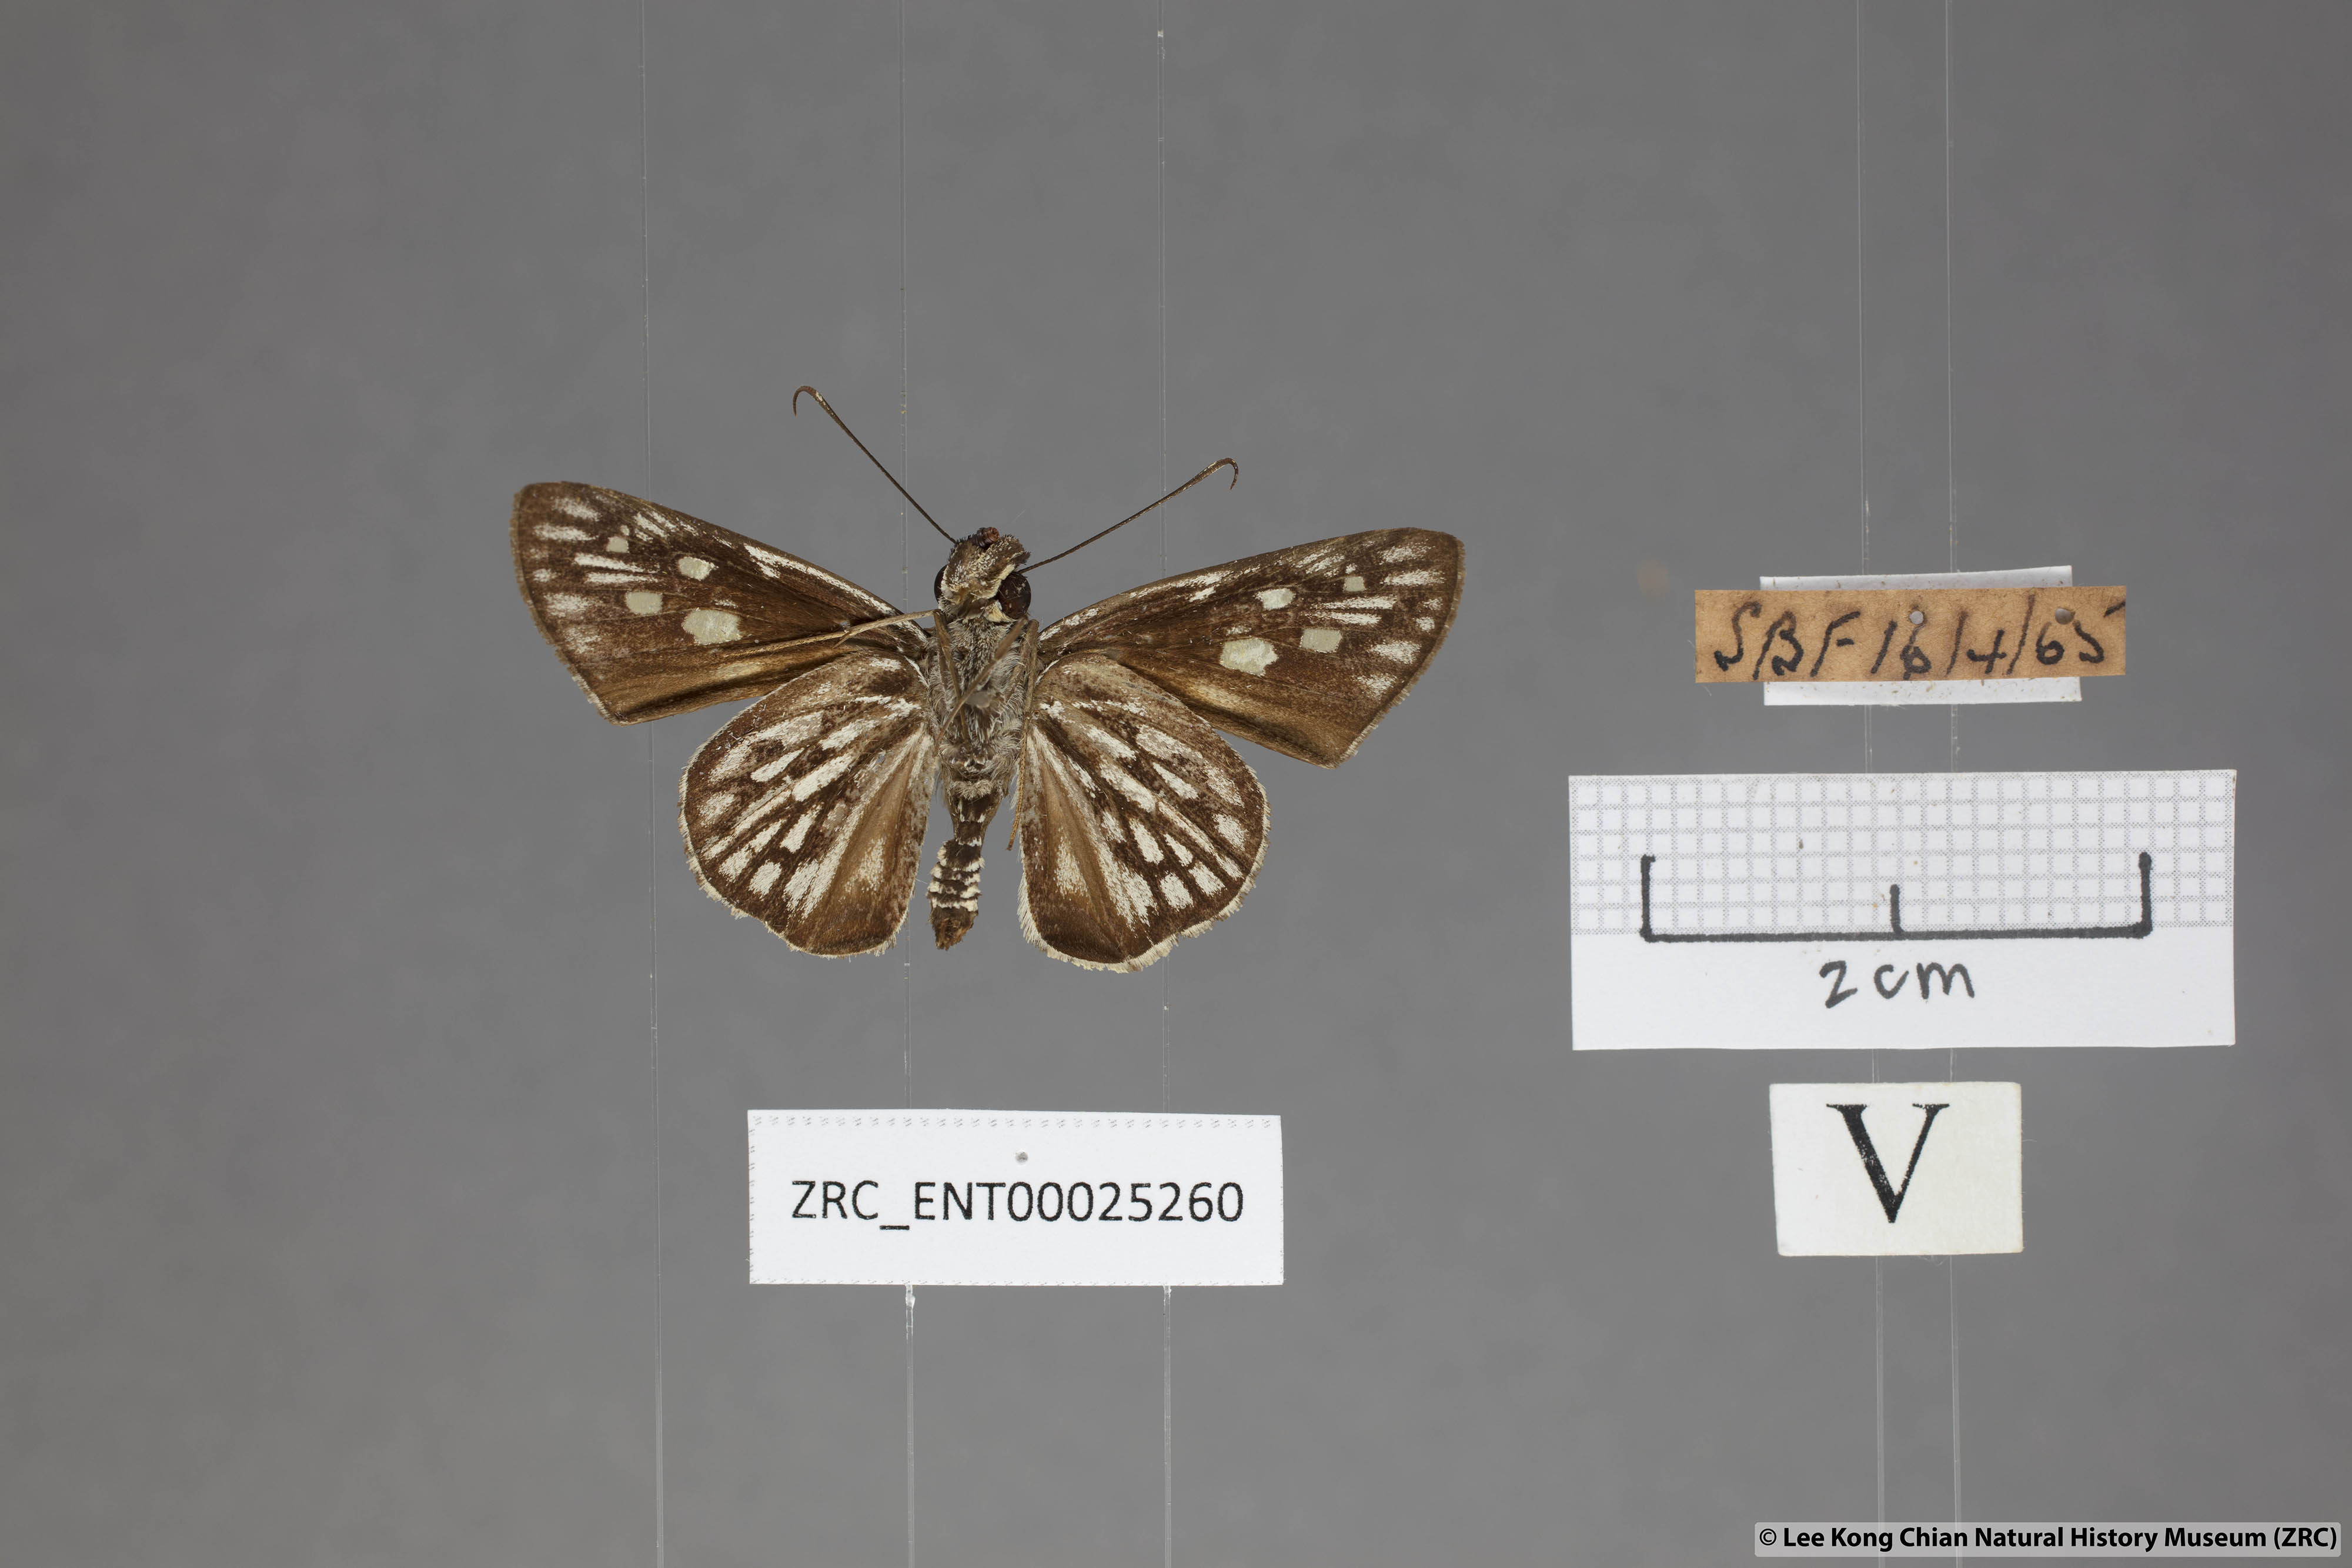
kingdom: Animalia
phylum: Arthropoda
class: Insecta
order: Lepidoptera
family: Hesperiidae
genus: Plastingia
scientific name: Plastingia naga
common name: Chequered lancer
